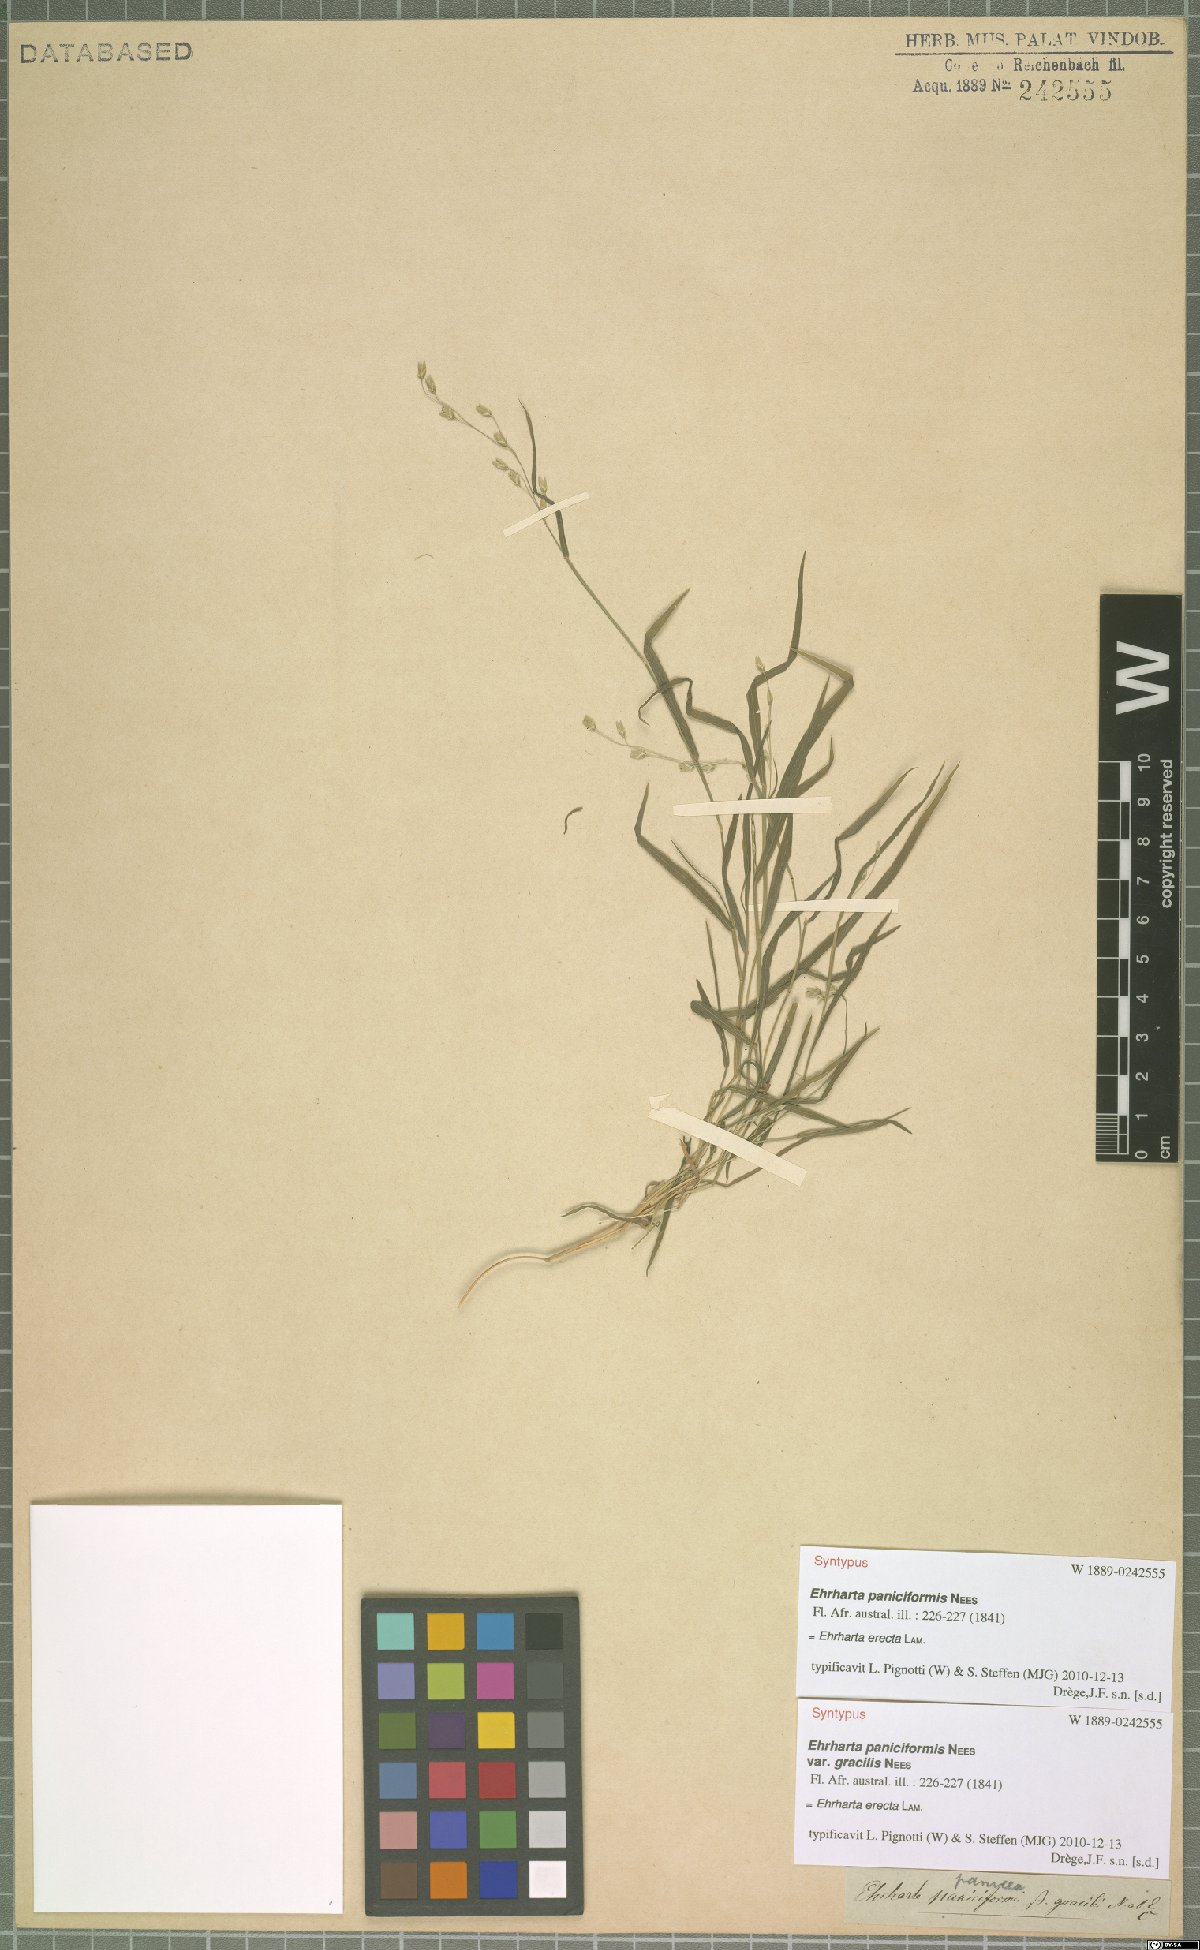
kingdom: Plantae
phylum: Tracheophyta
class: Liliopsida
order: Poales
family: Poaceae
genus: Ehrharta
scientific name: Ehrharta erecta
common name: Panic veldtgrass
